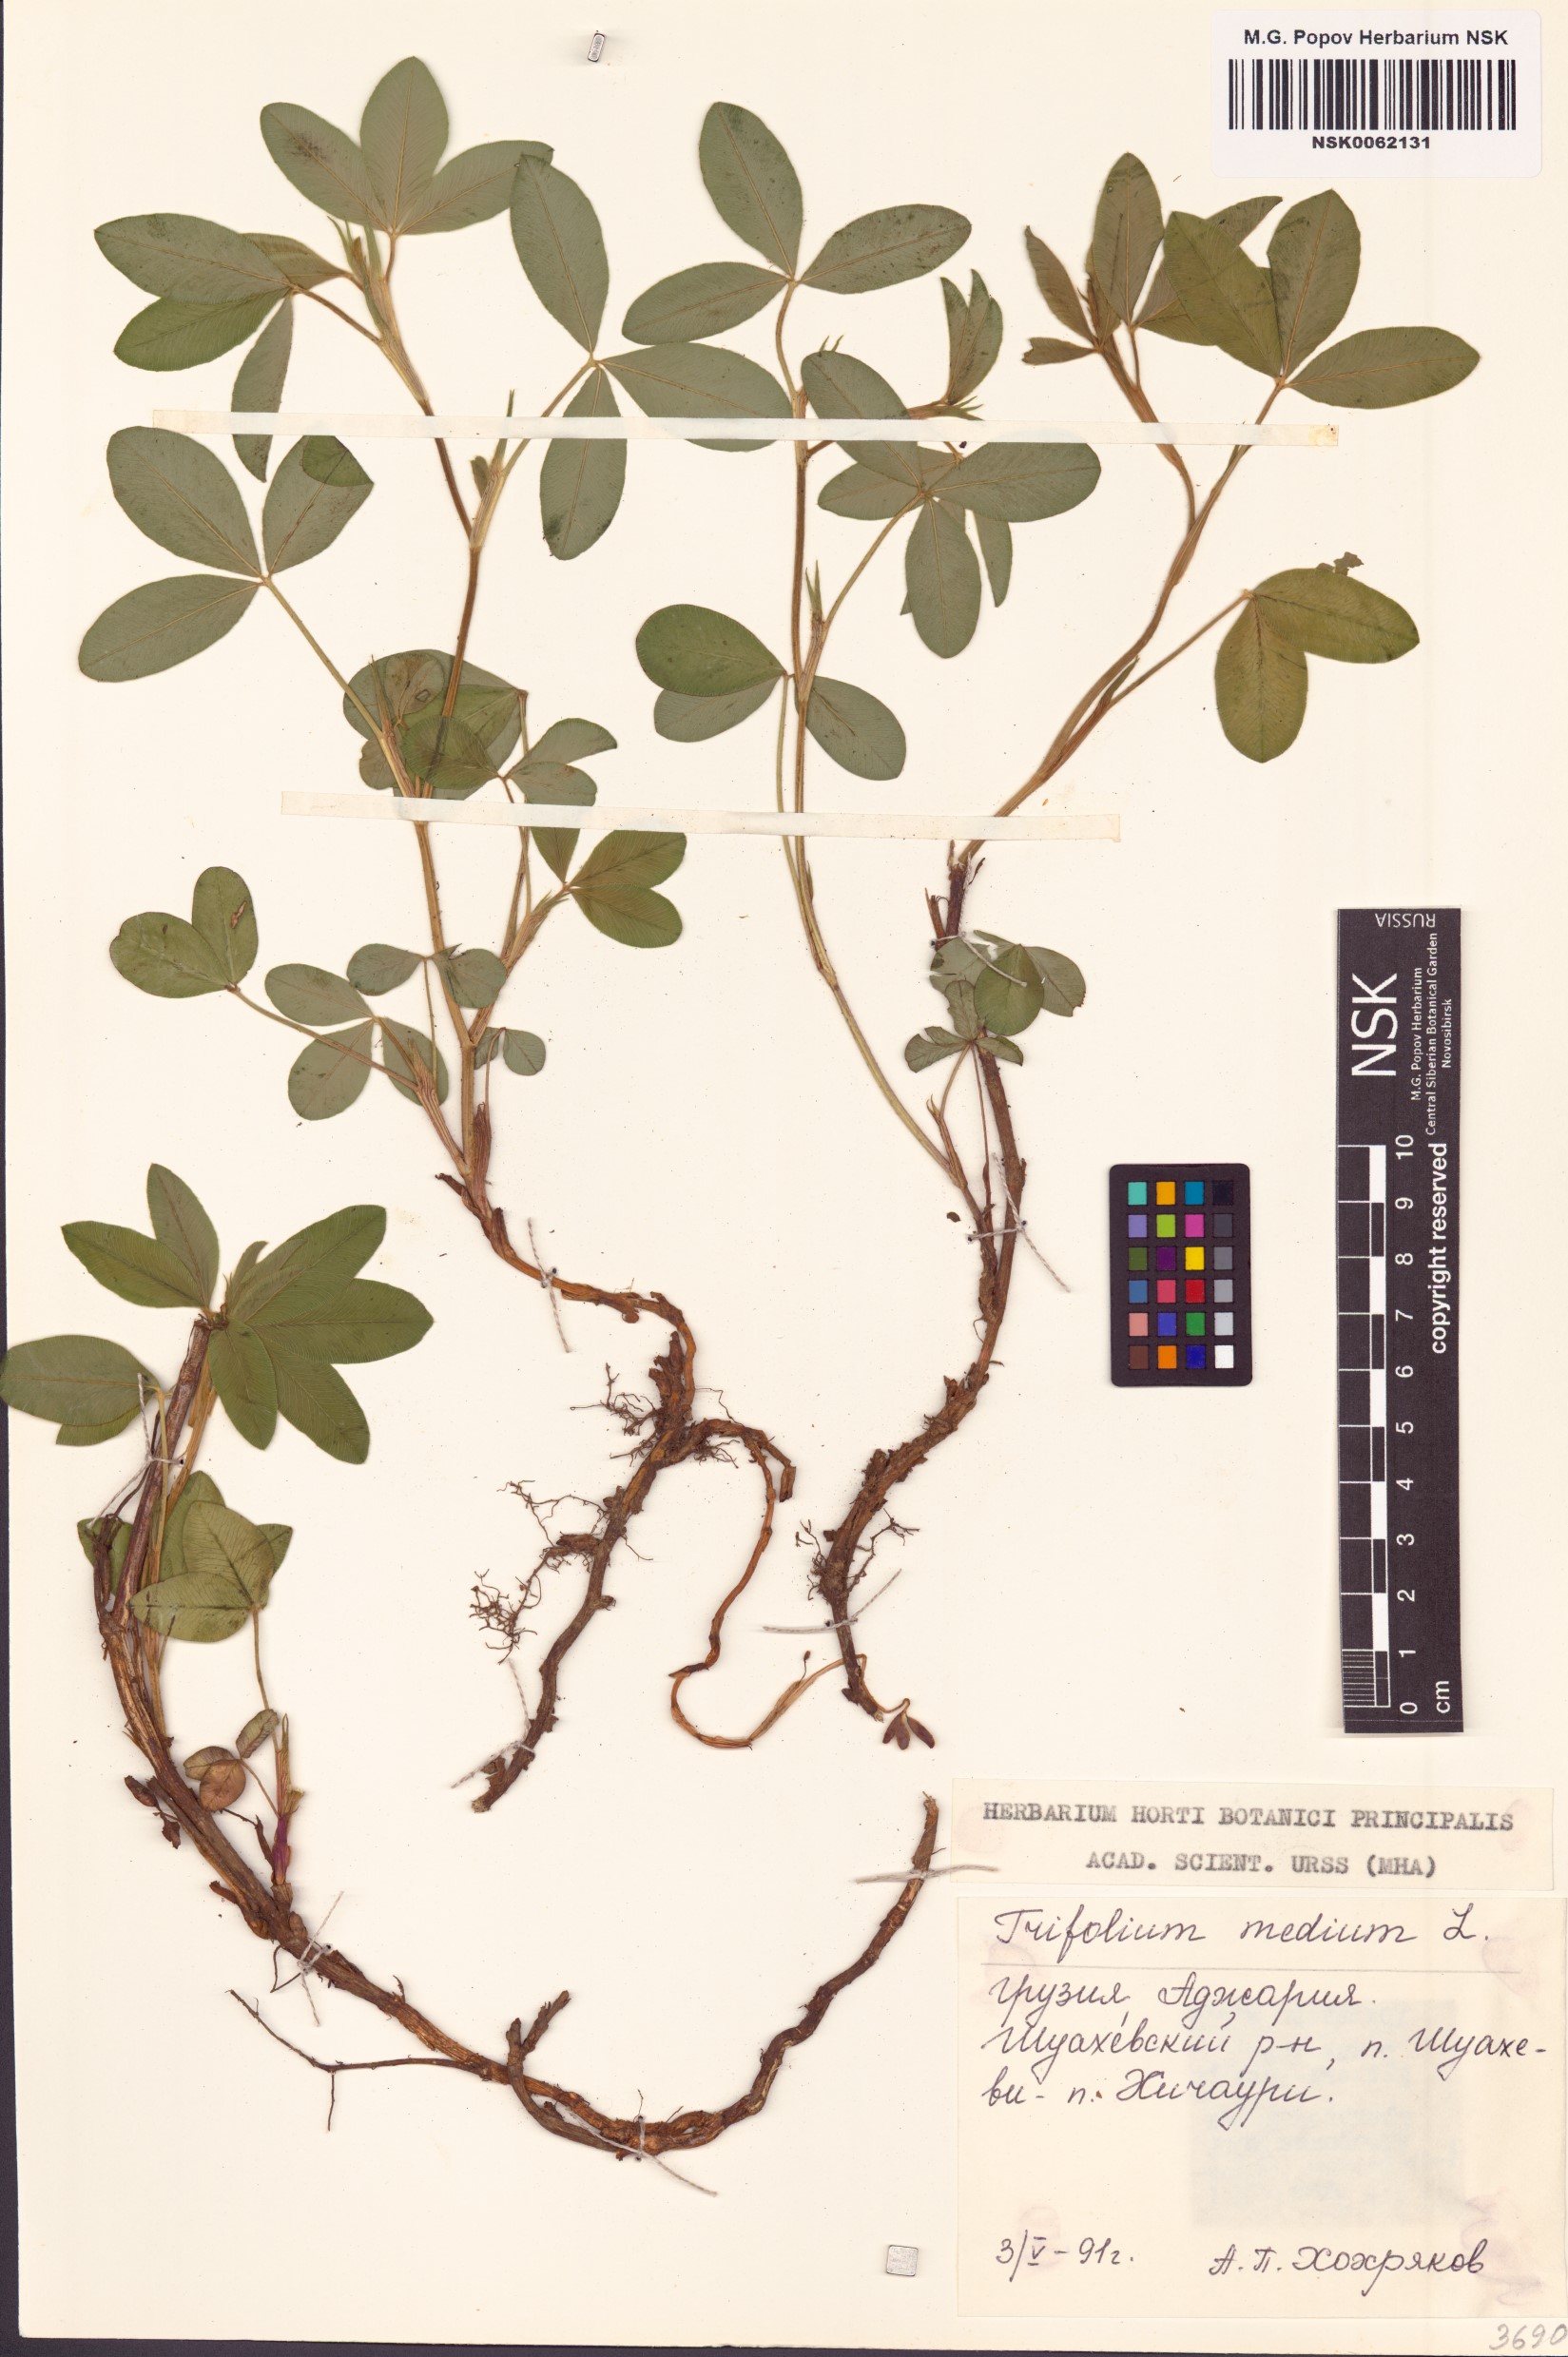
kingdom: Plantae
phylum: Tracheophyta
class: Magnoliopsida
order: Fabales
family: Fabaceae
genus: Trifolium
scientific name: Trifolium medium
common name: Zigzag clover
